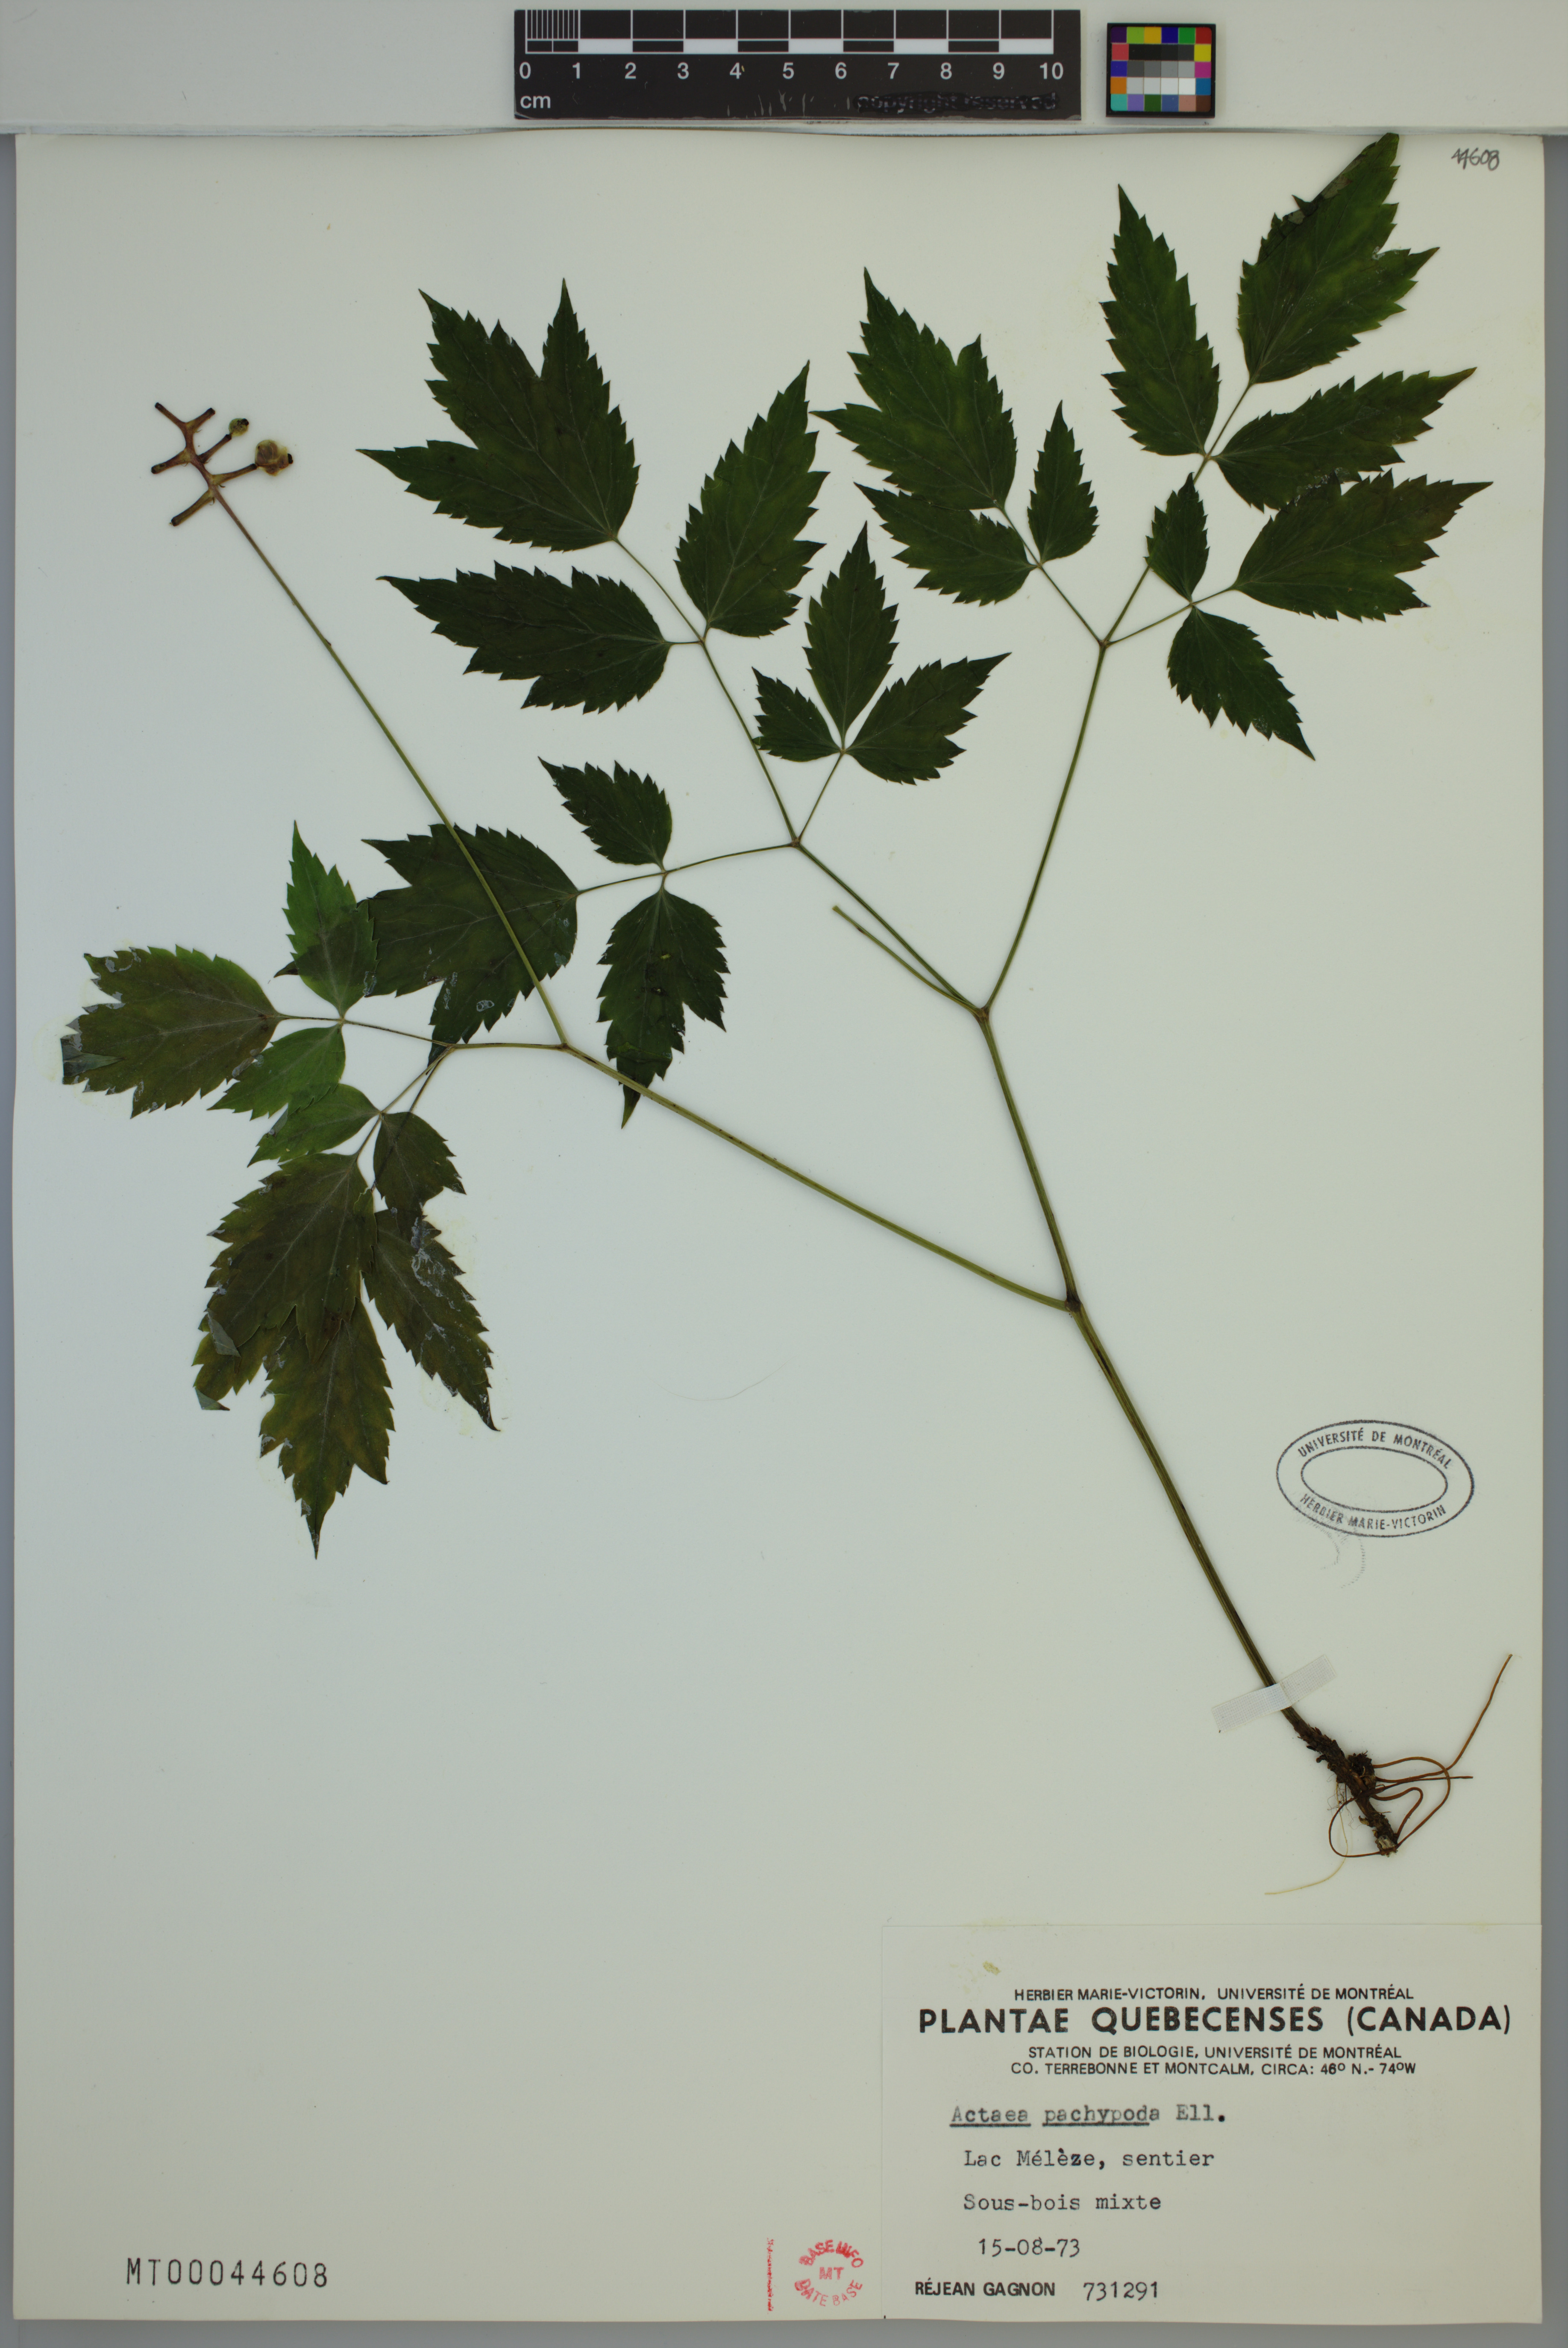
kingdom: Plantae
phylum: Tracheophyta
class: Magnoliopsida
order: Ranunculales
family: Ranunculaceae
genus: Actaea
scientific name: Actaea pachypoda
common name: Doll's-eyes
